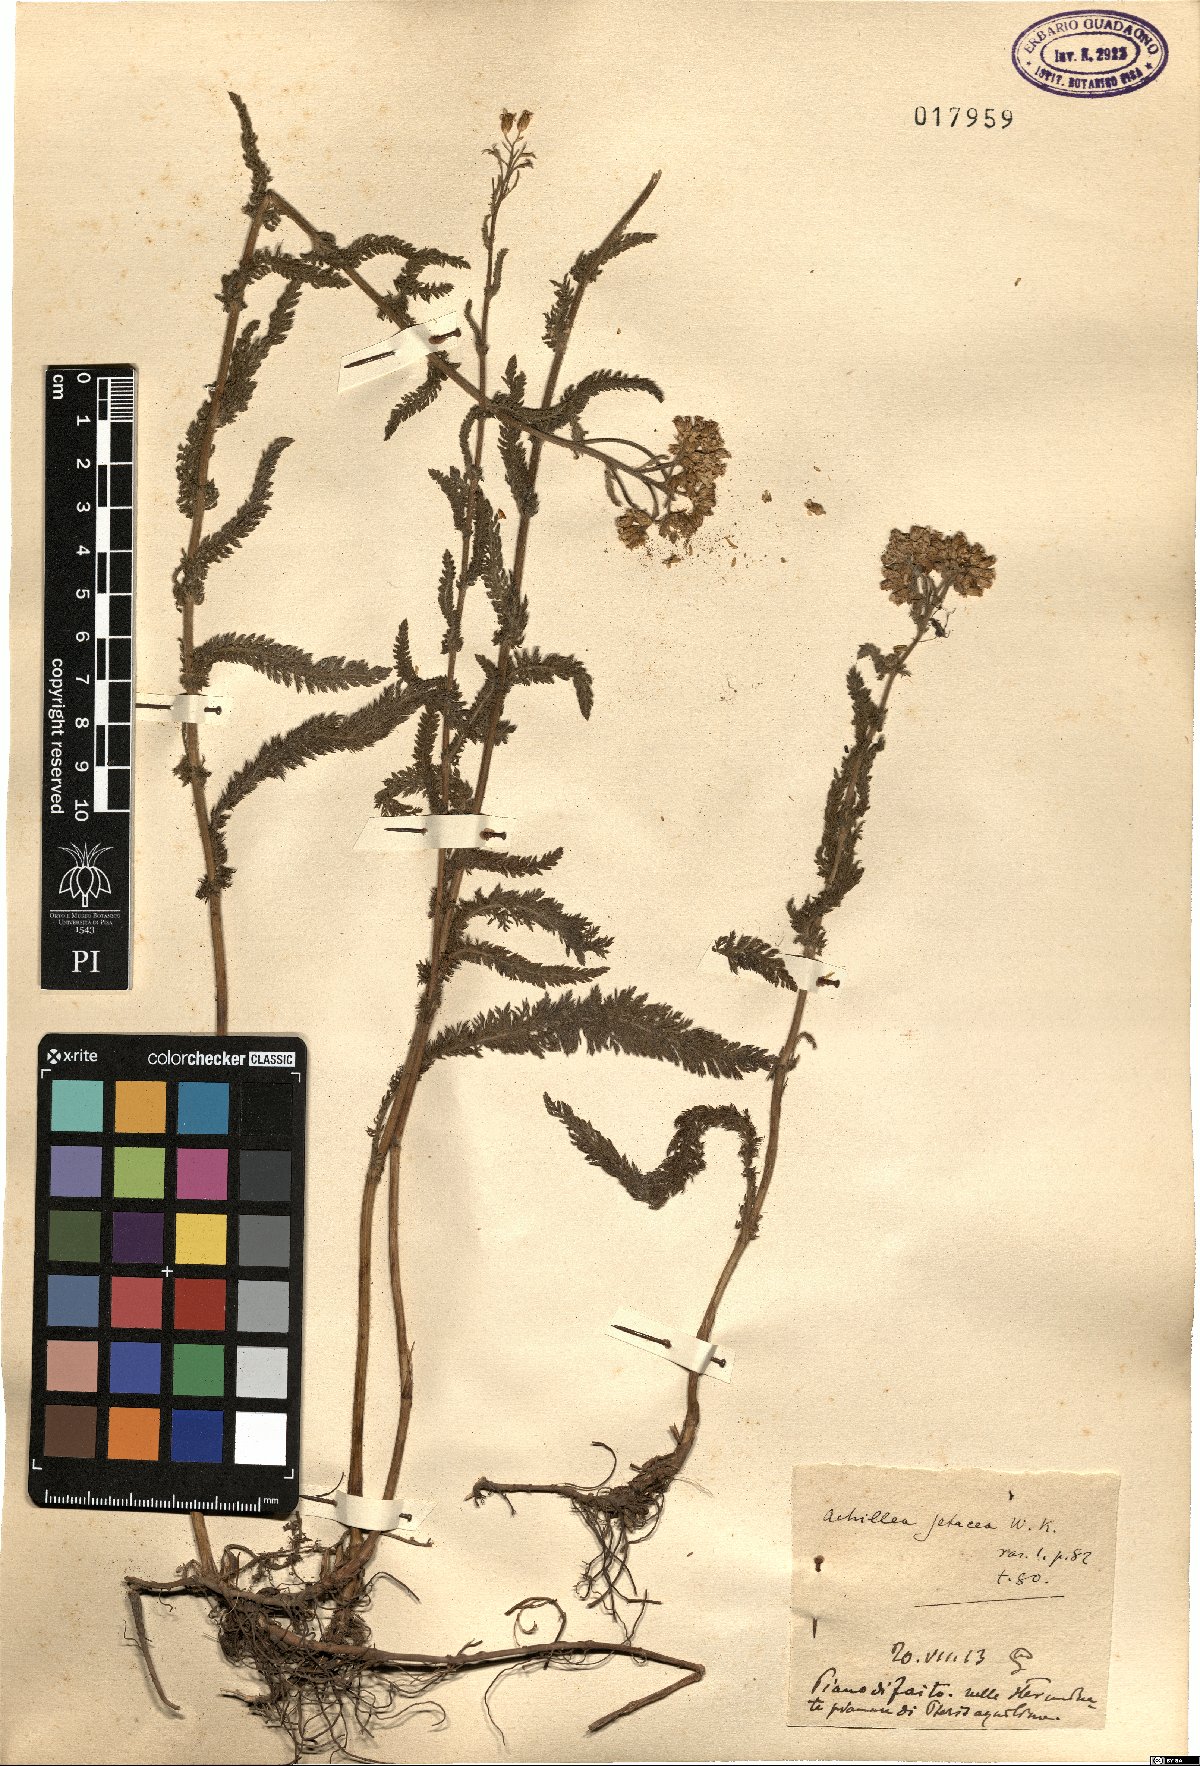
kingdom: Plantae
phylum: Tracheophyta
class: Magnoliopsida
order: Asterales
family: Asteraceae
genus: Achillea
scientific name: Achillea setacea
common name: Bristly yarrow
